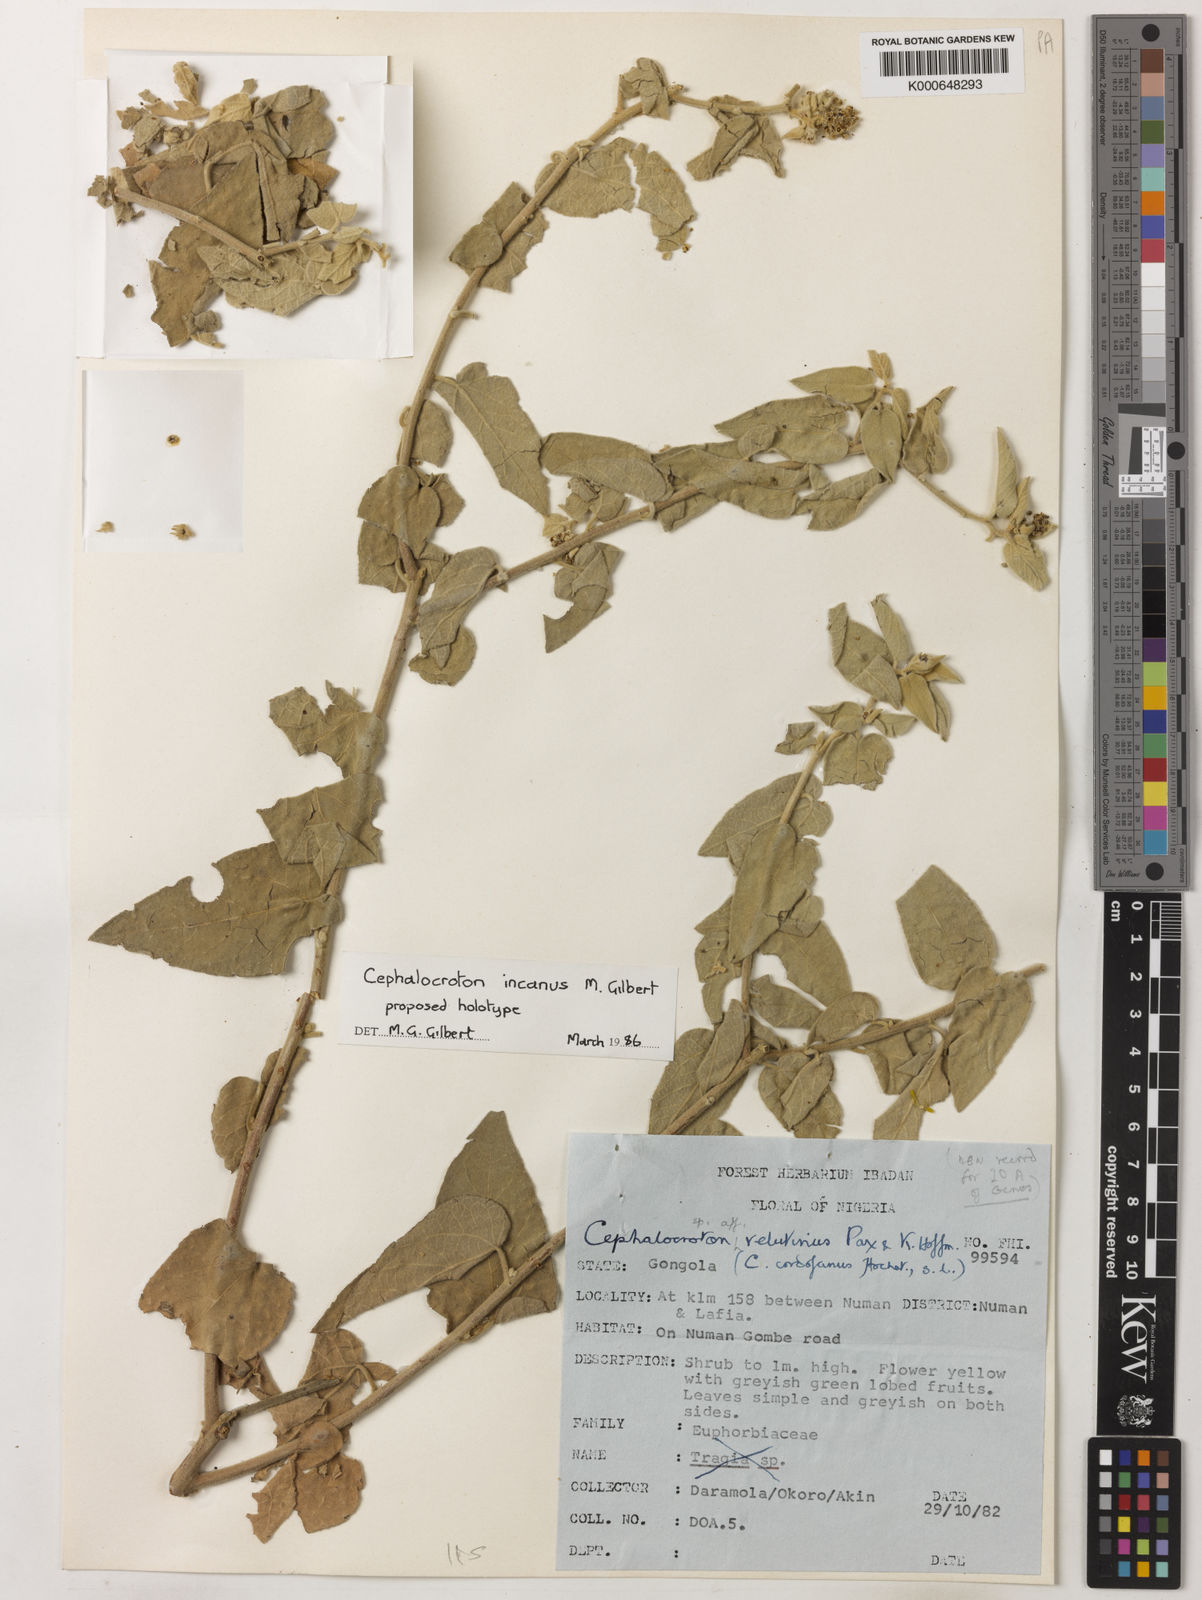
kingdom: Plantae
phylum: Tracheophyta
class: Magnoliopsida
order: Malpighiales
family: Euphorbiaceae
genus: Cephalocroton
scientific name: Cephalocroton incanus
